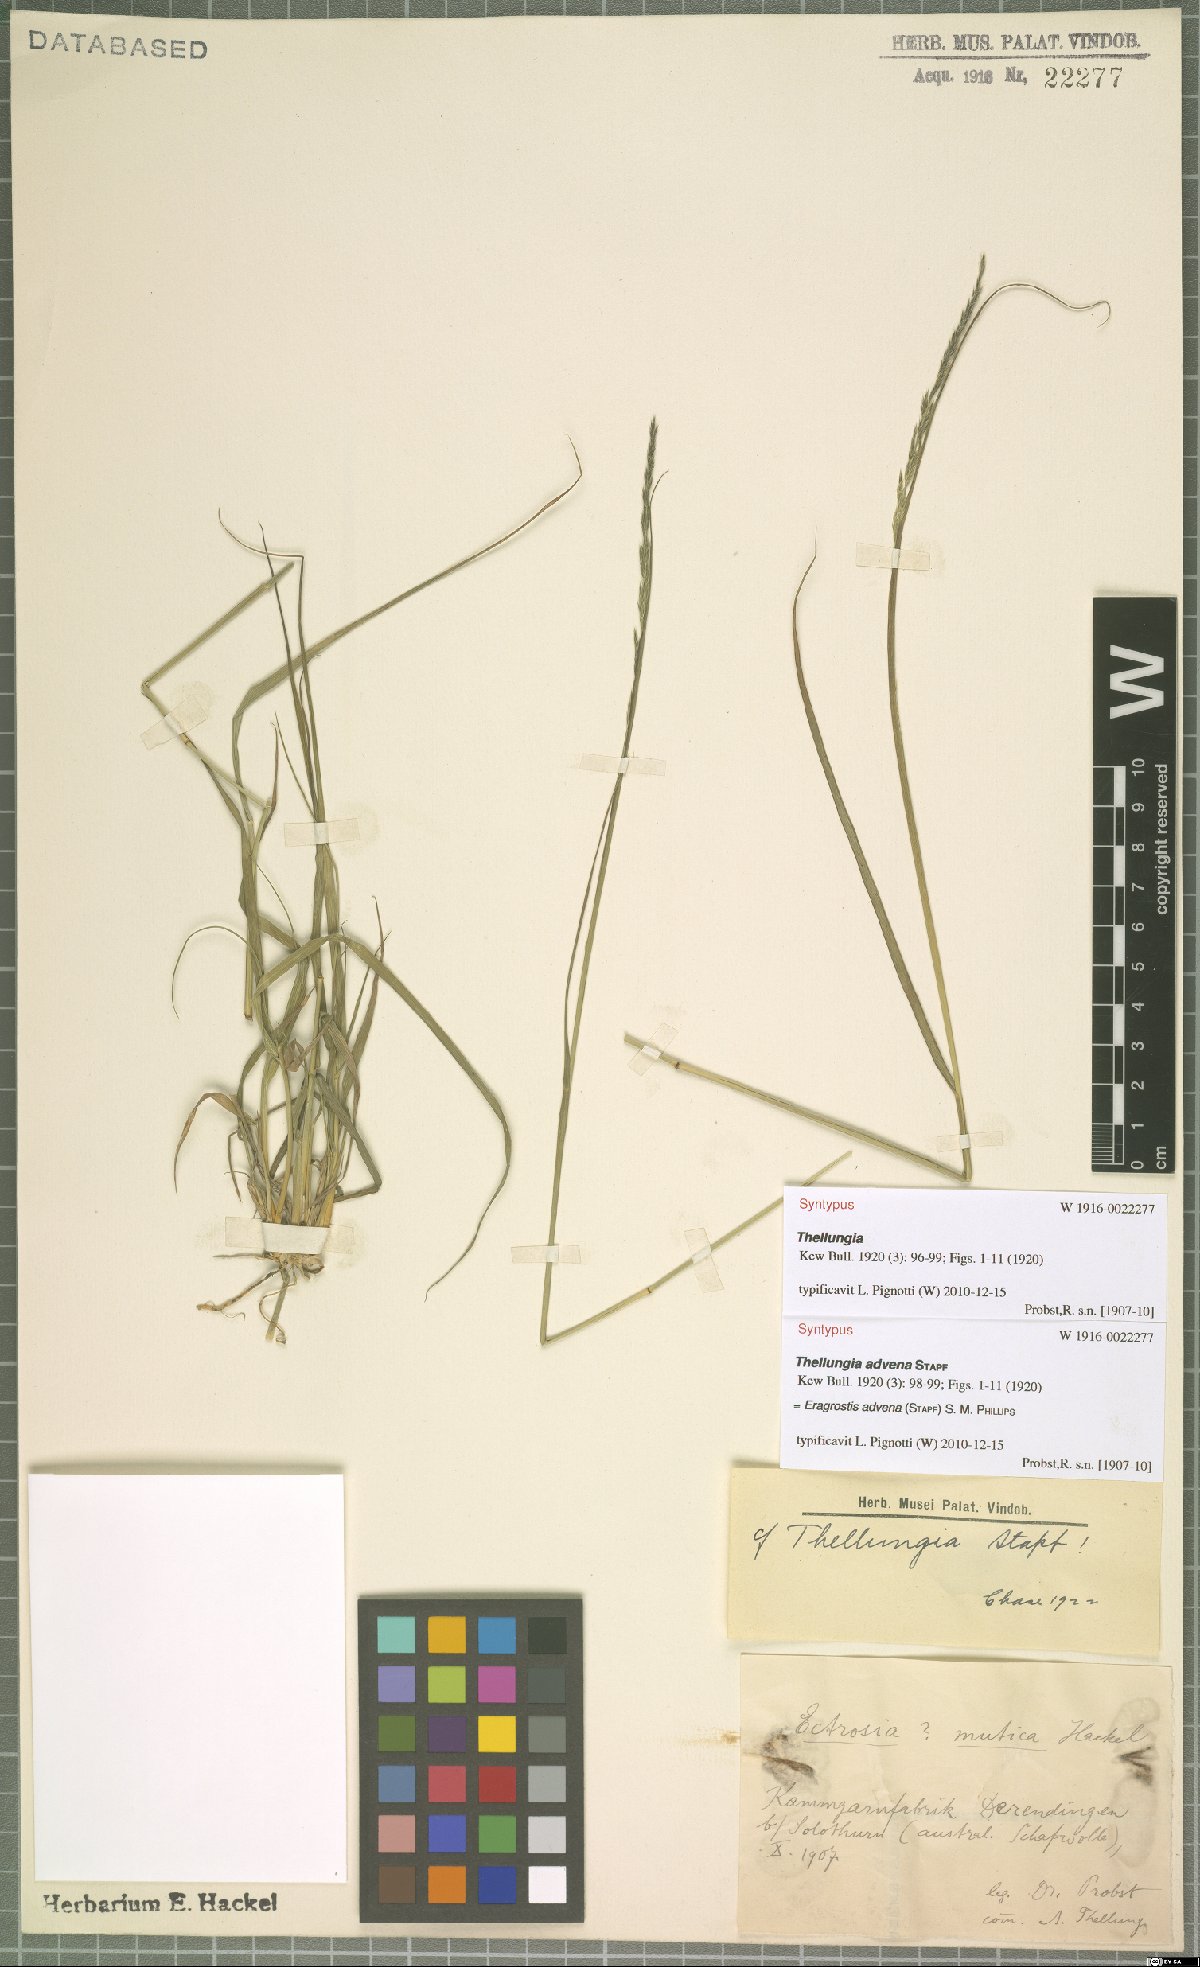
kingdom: Plantae
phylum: Tracheophyta
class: Liliopsida
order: Poales
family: Poaceae
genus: Sporobolus
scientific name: Sporobolus advenus
